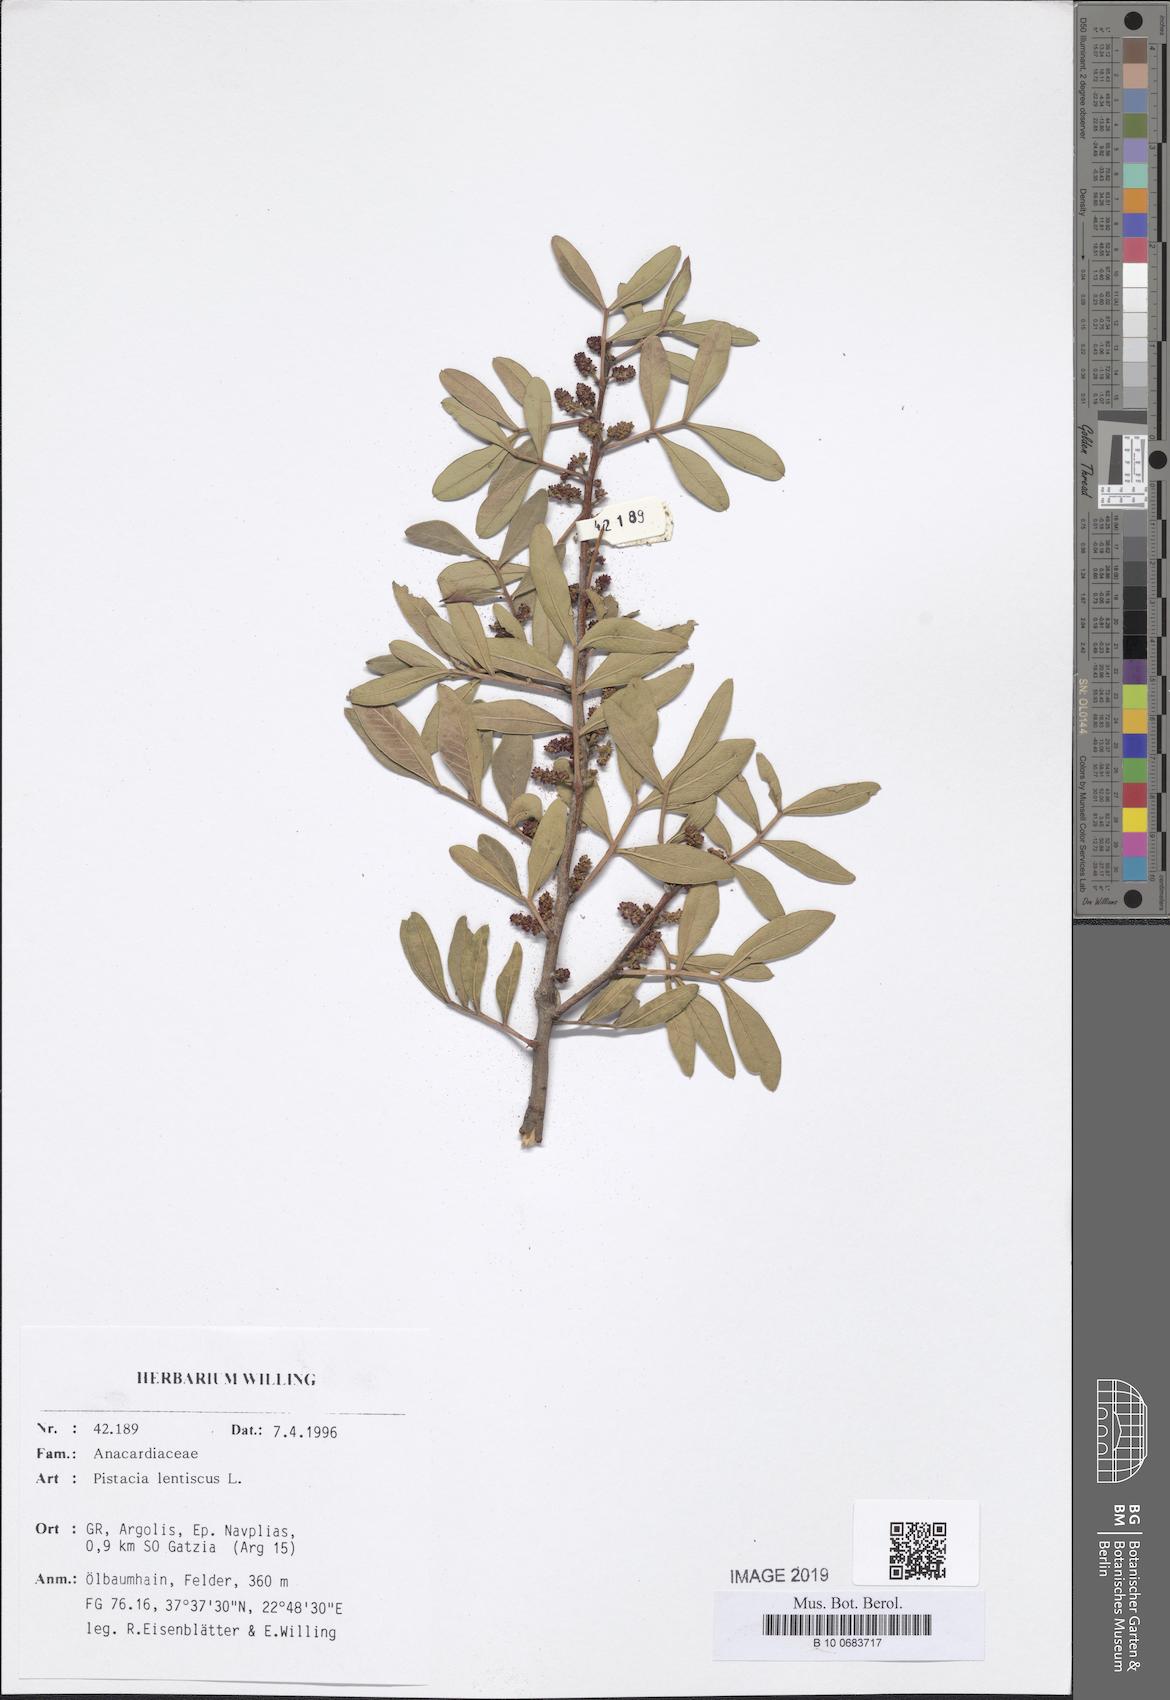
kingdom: Plantae
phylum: Tracheophyta
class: Magnoliopsida
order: Sapindales
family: Anacardiaceae
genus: Pistacia
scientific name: Pistacia lentiscus
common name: Lentisk
